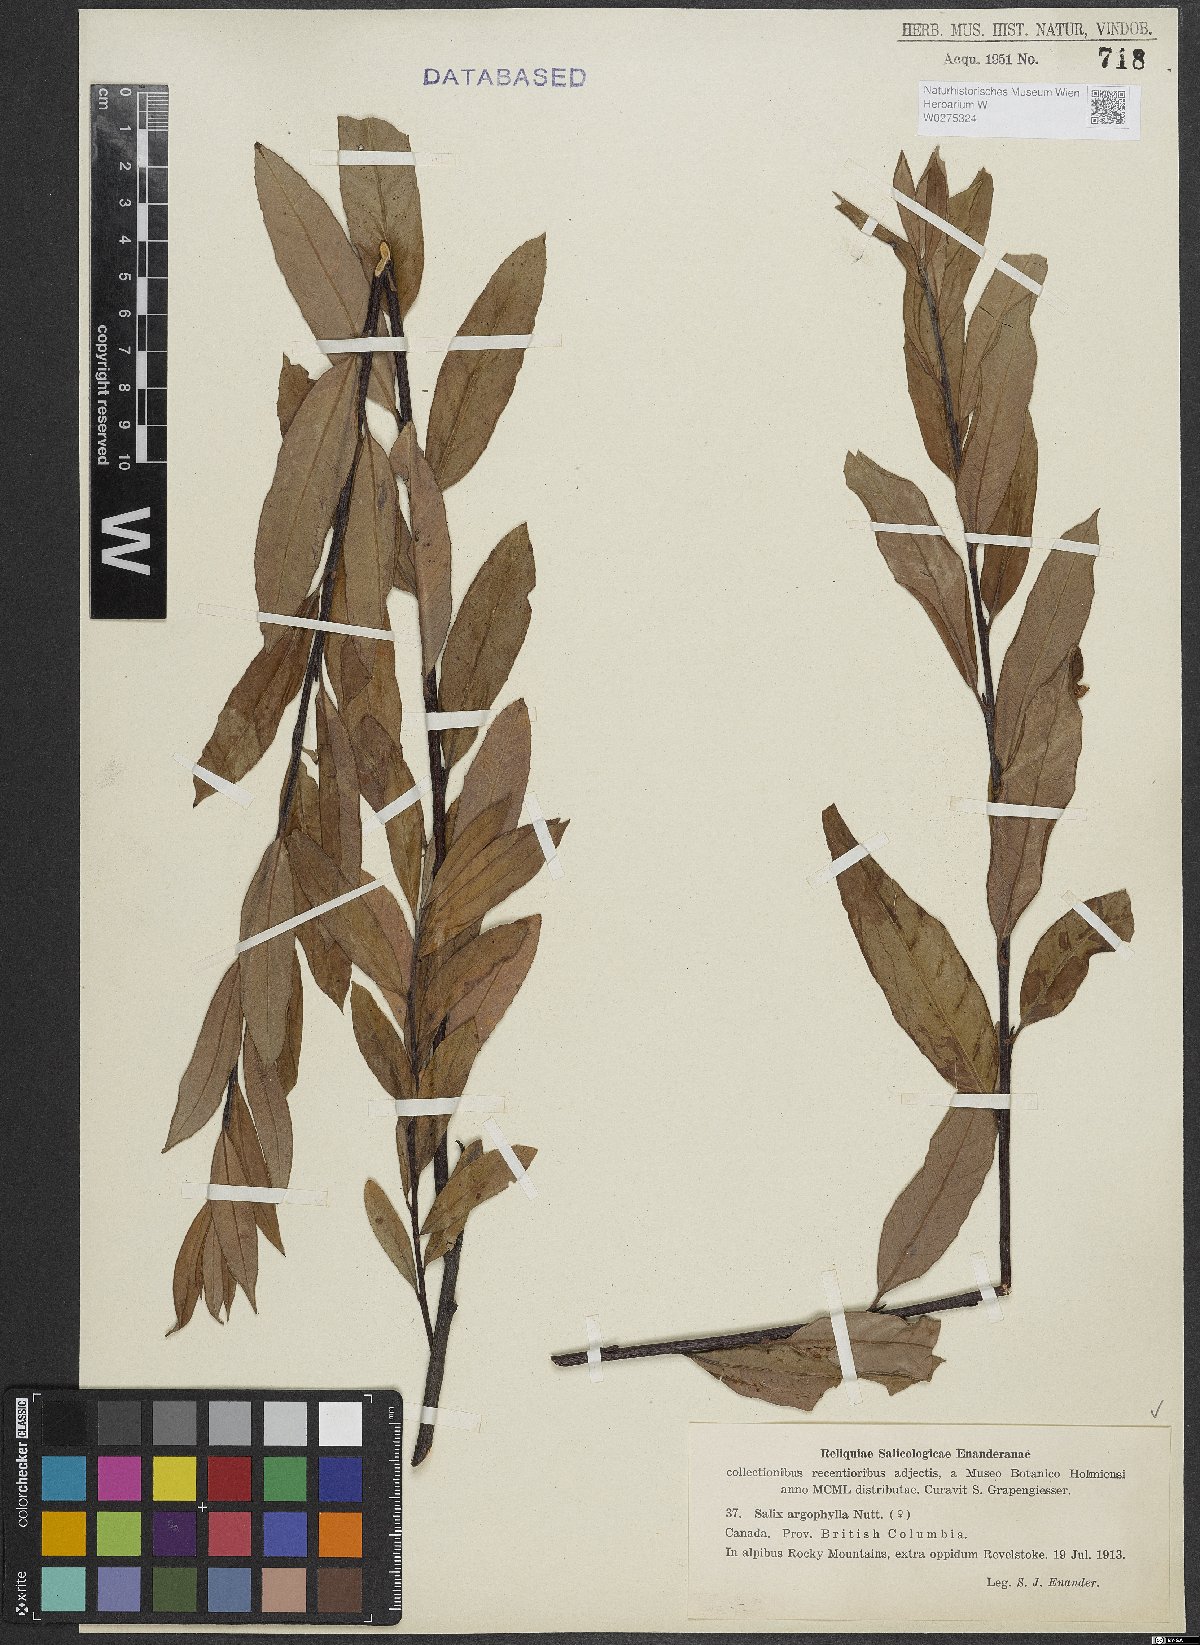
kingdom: Plantae
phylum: Tracheophyta
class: Magnoliopsida
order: Malpighiales
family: Salicaceae
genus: Salix
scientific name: Salix exigua
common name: Coyote willow
